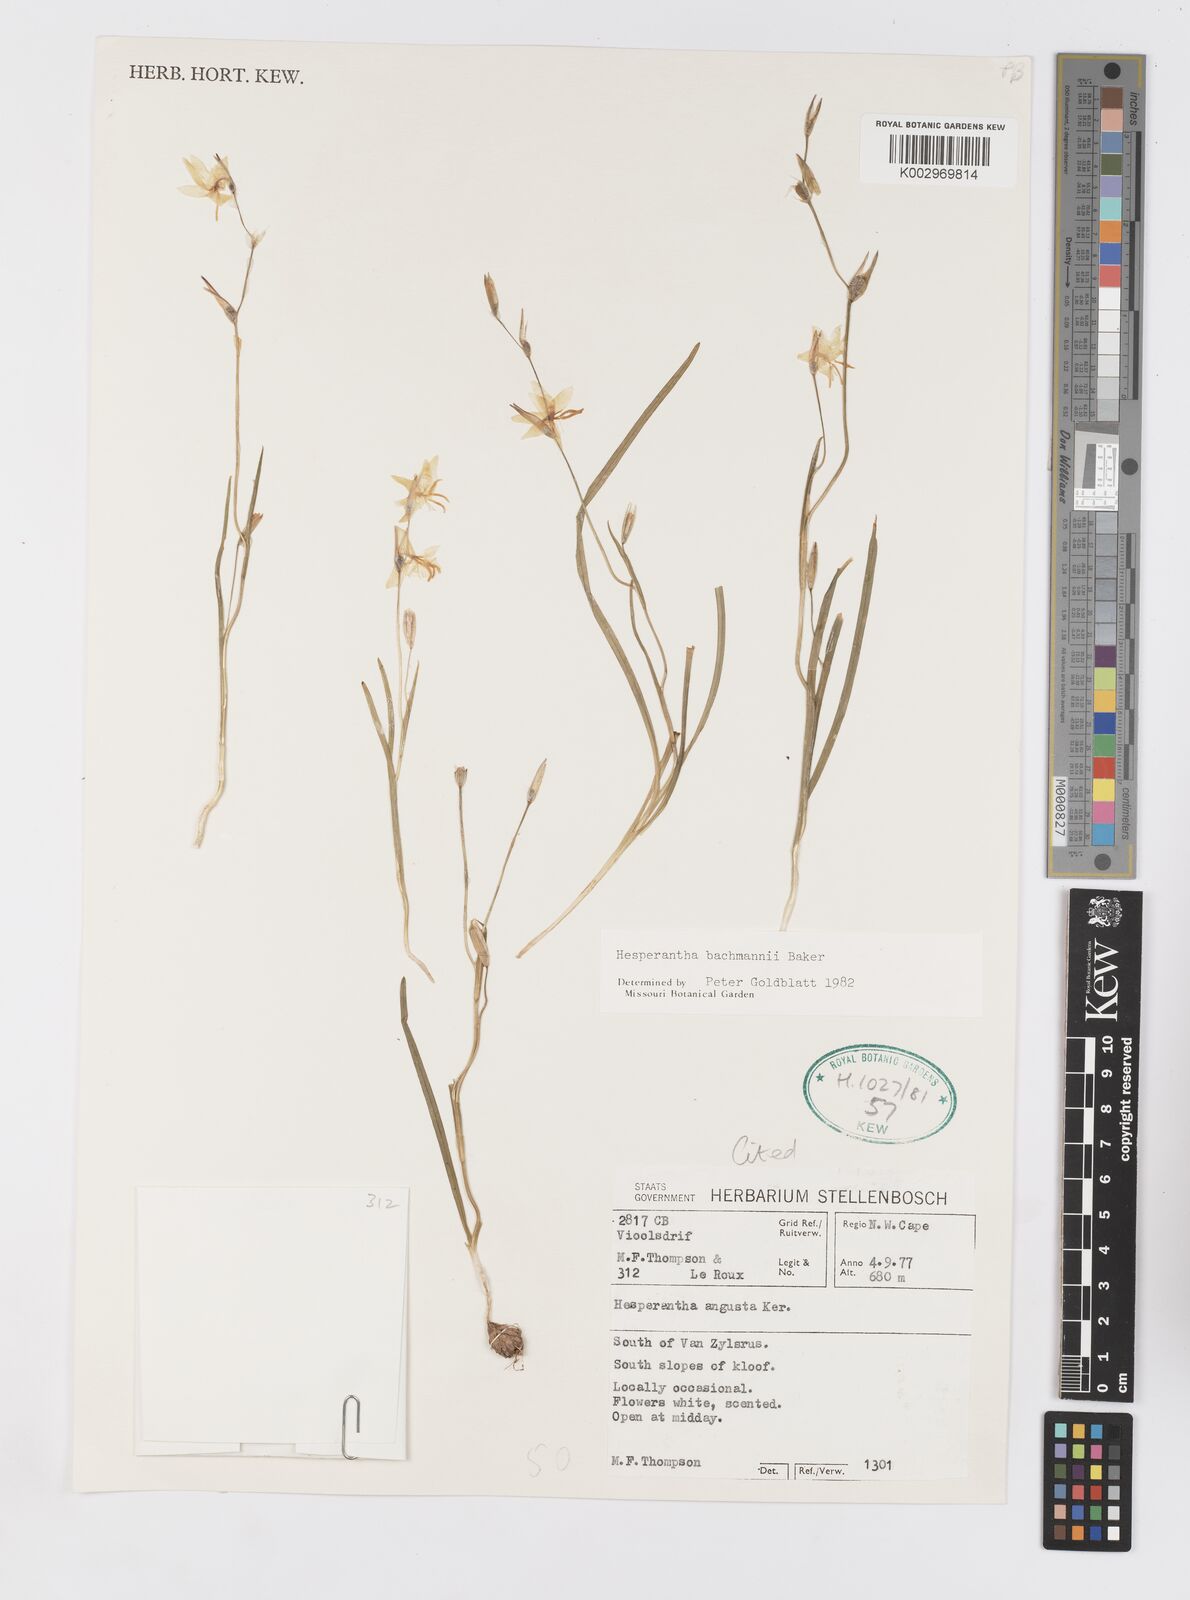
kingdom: Plantae
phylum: Tracheophyta
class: Liliopsida
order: Asparagales
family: Iridaceae
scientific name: Iridaceae
